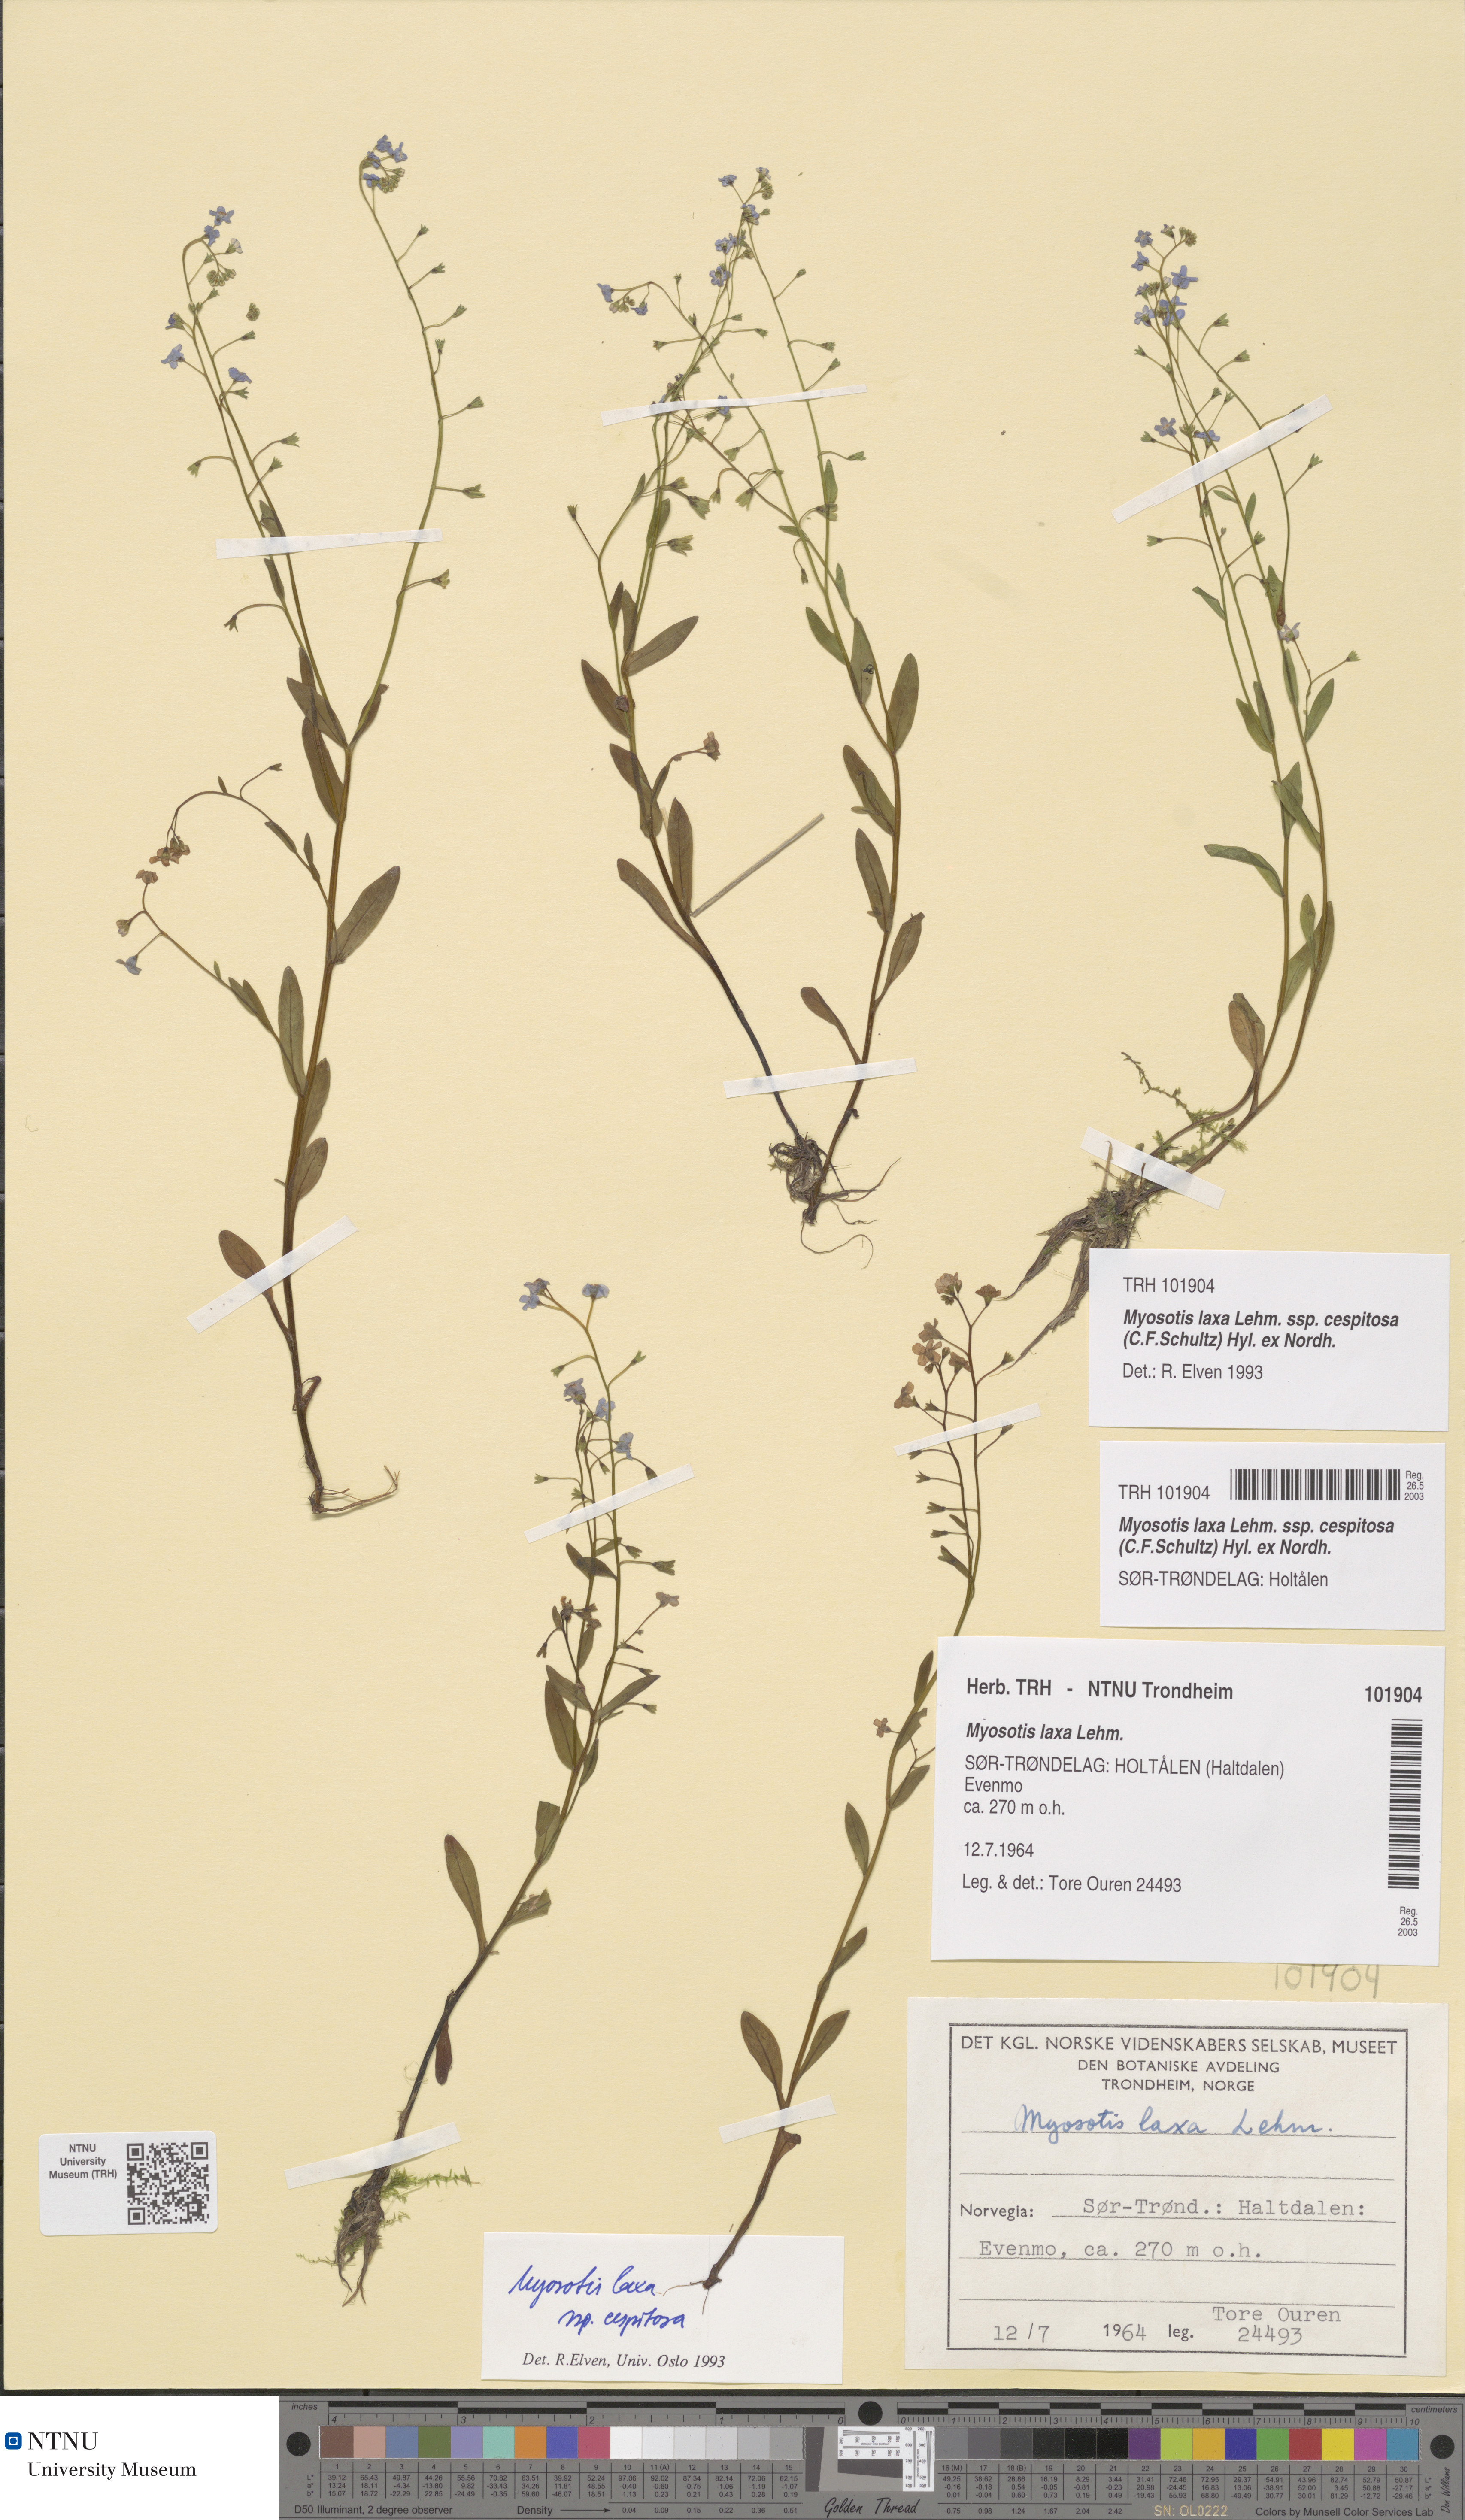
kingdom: Plantae
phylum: Tracheophyta
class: Magnoliopsida
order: Boraginales
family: Boraginaceae
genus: Myosotis
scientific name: Myosotis laxa
